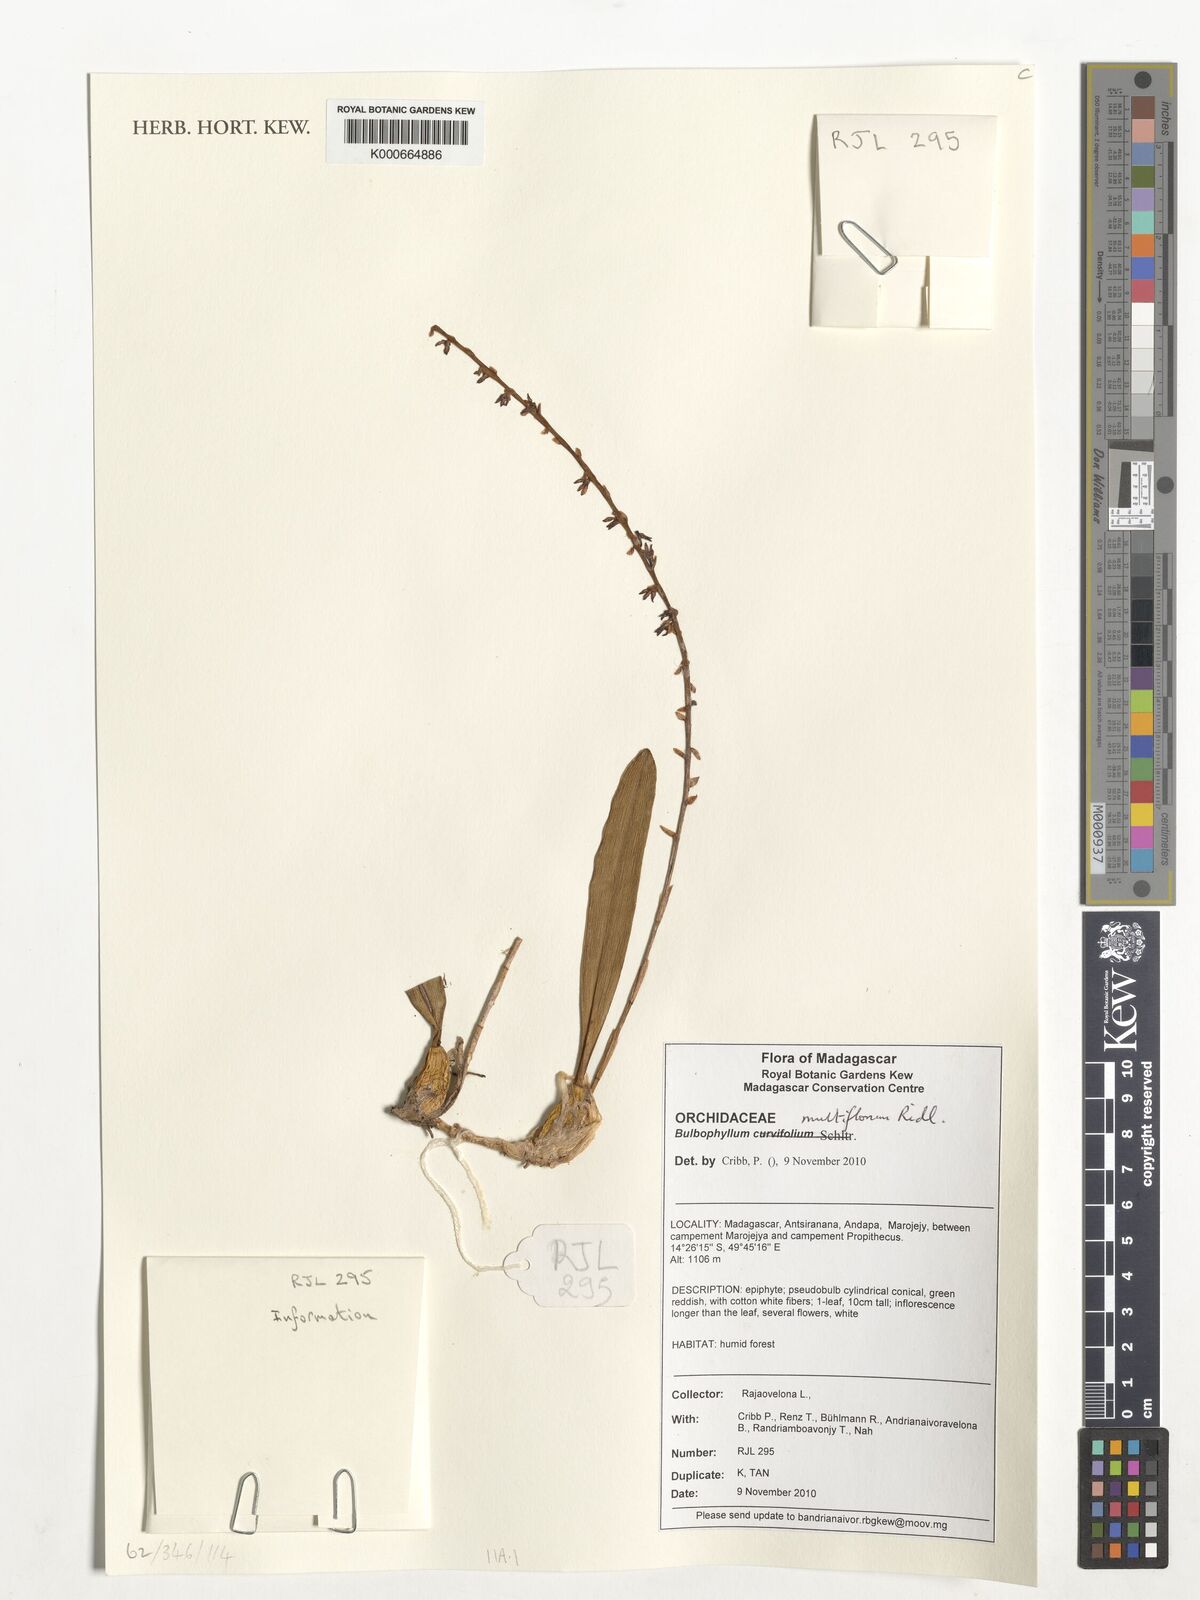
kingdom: Plantae
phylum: Tracheophyta
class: Liliopsida
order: Asparagales
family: Orchidaceae
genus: Bulbophyllum
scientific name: Bulbophyllum multiflorum
